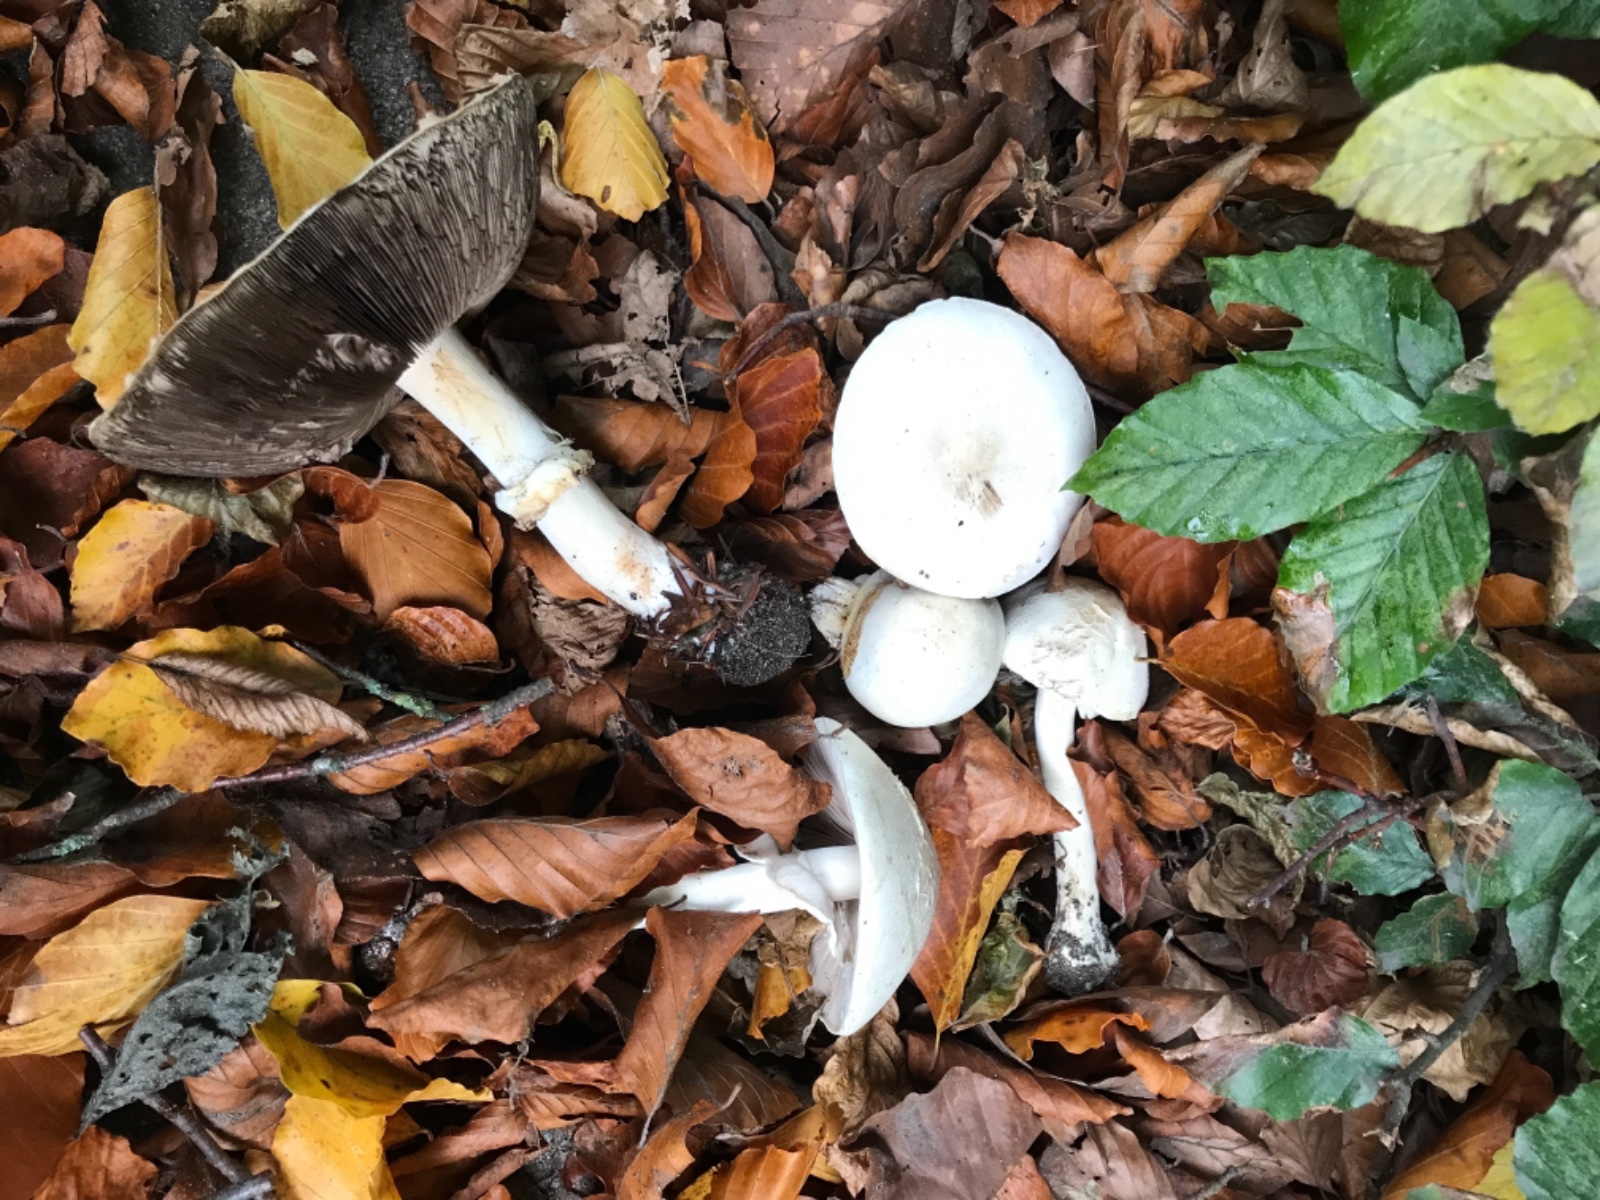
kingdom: Fungi
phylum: Basidiomycota
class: Agaricomycetes
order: Agaricales
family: Agaricaceae
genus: Agaricus
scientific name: Agaricus
